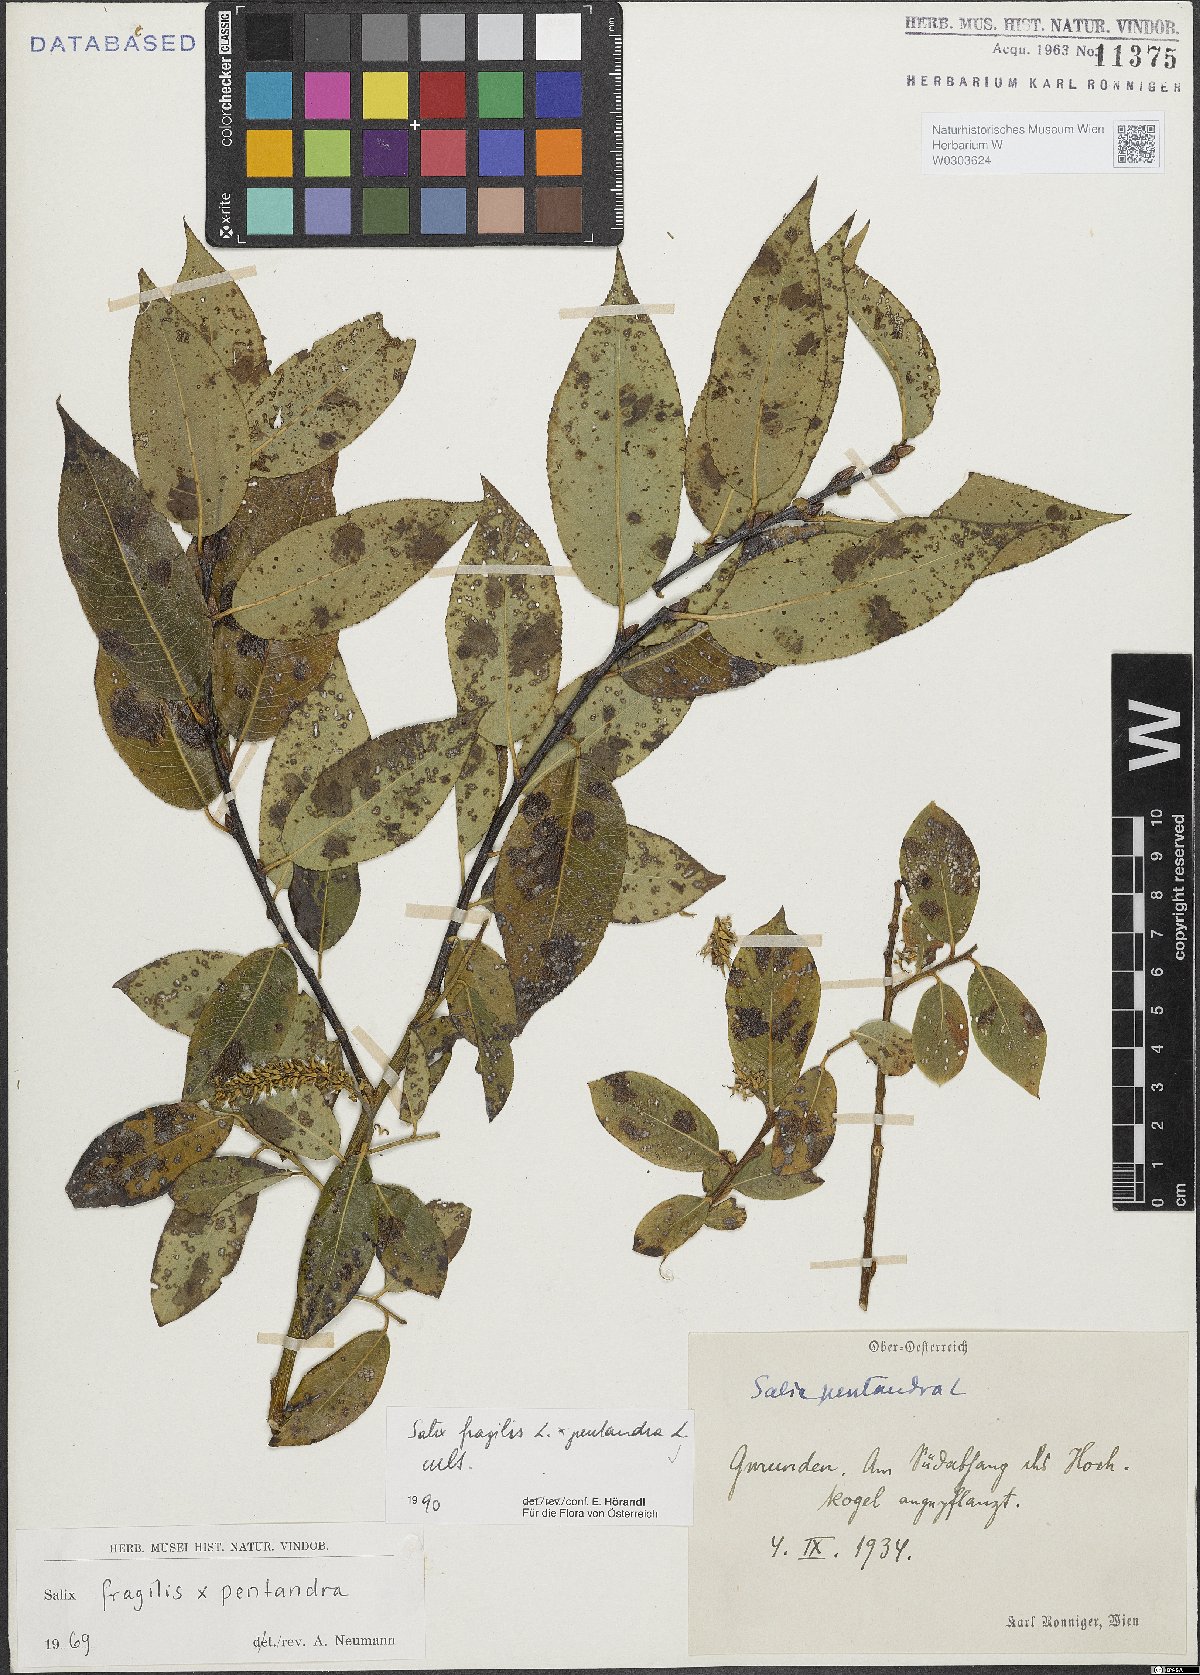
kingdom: Plantae
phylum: Tracheophyta
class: Magnoliopsida
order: Malpighiales
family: Salicaceae
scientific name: Salicaceae
